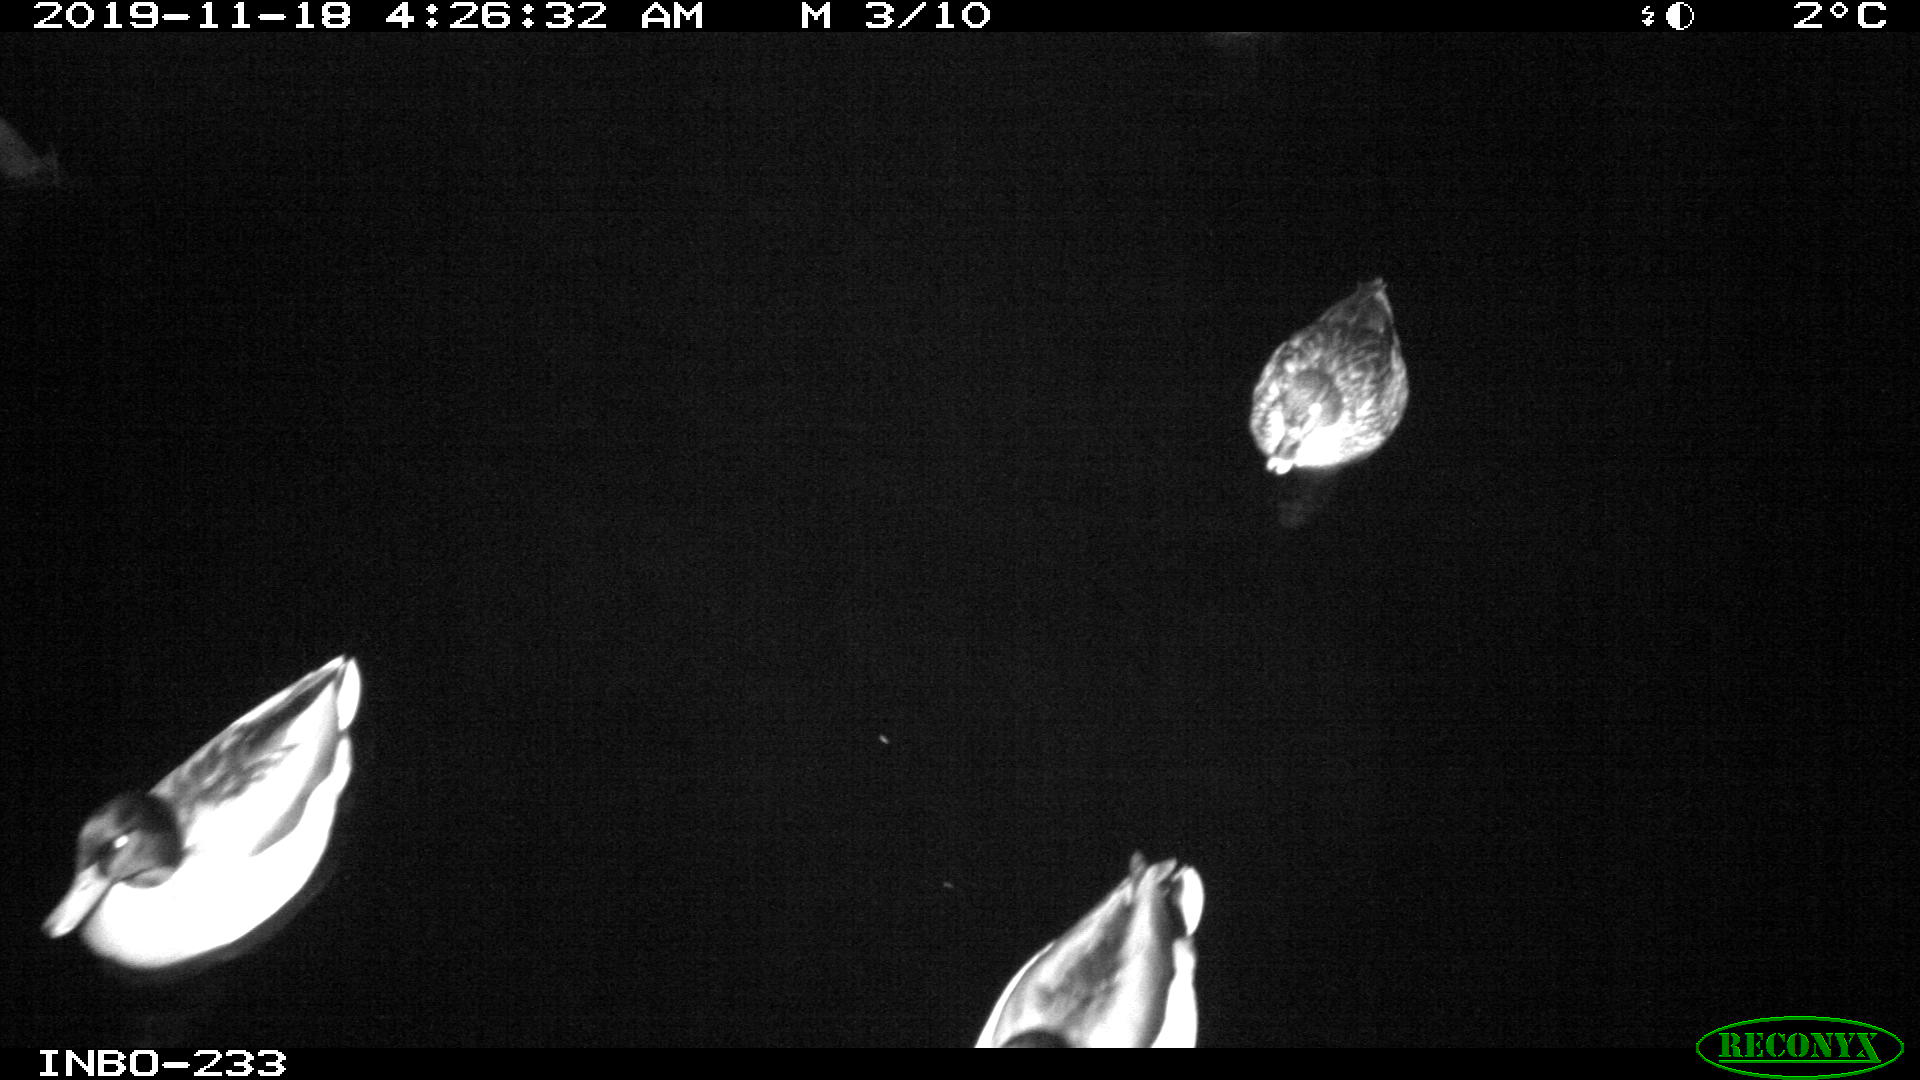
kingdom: Animalia
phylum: Chordata
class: Aves
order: Anseriformes
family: Anatidae
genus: Anas
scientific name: Anas platyrhynchos
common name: Mallard
